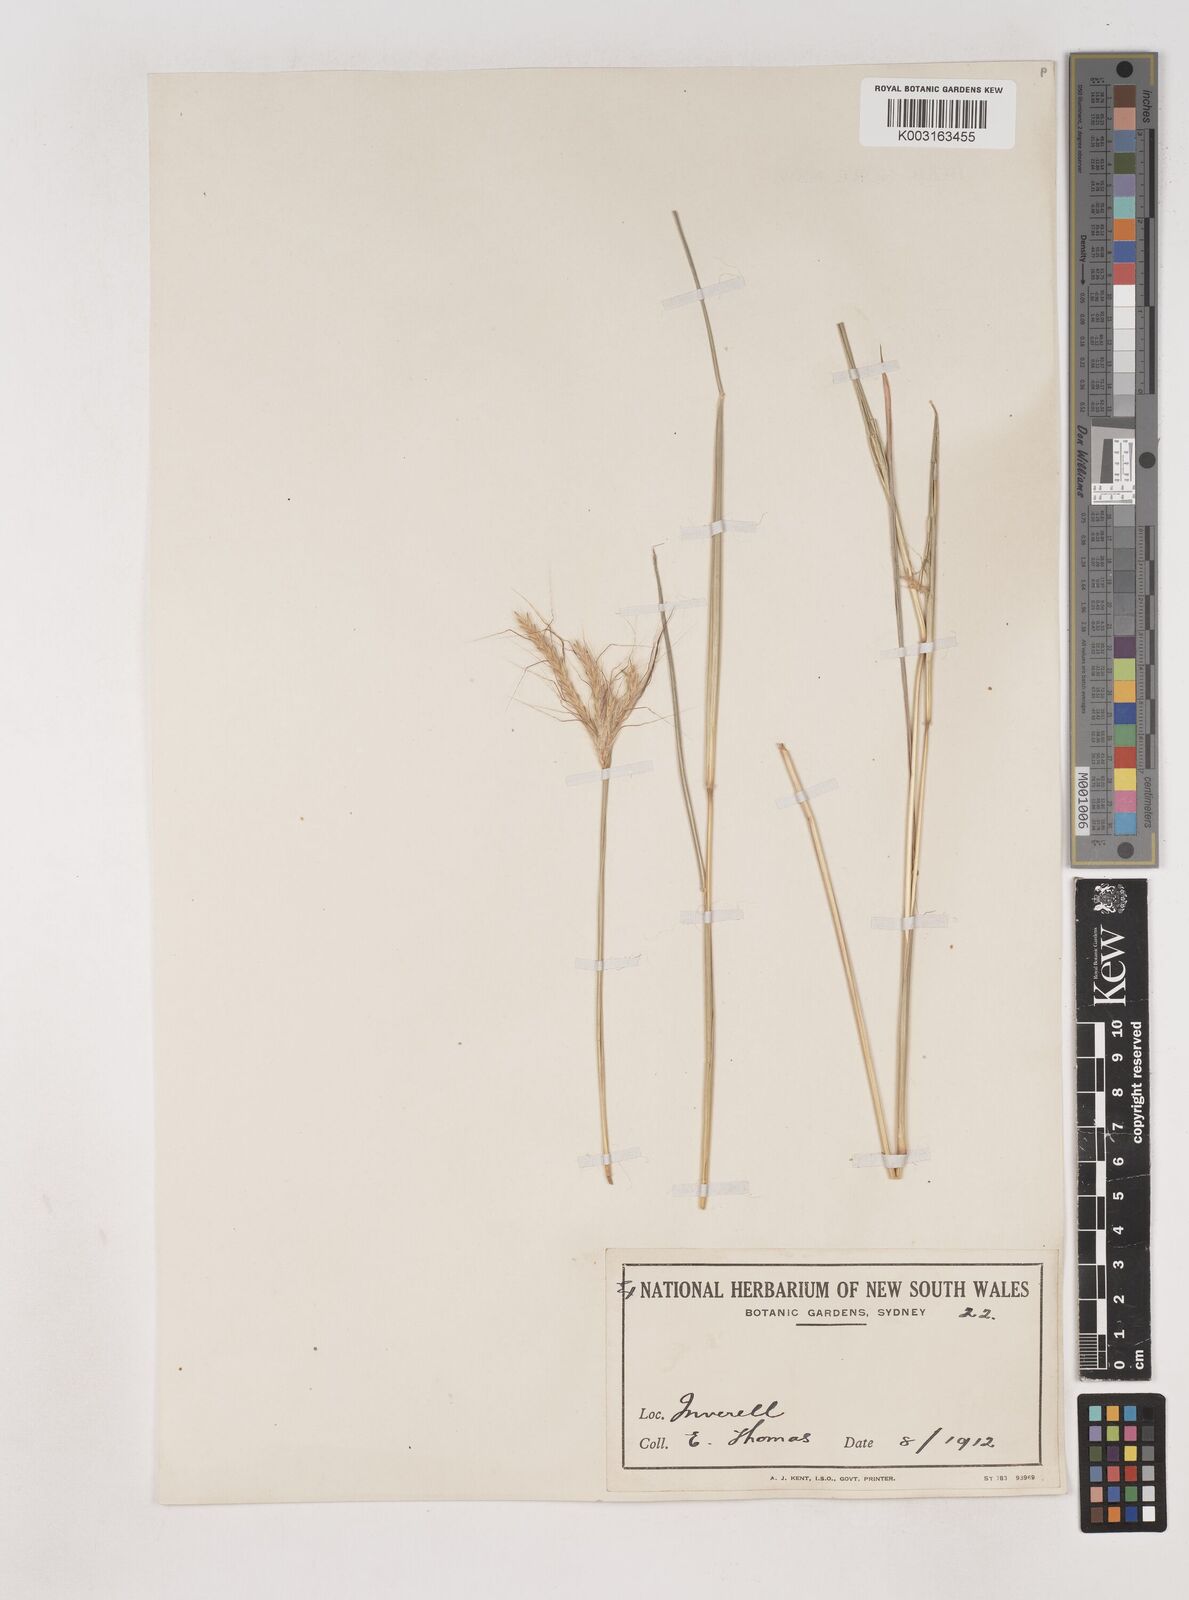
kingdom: Plantae
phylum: Tracheophyta
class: Liliopsida
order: Poales
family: Poaceae
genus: Dichanthium
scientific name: Dichanthium sericeum
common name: Silky bluestem
